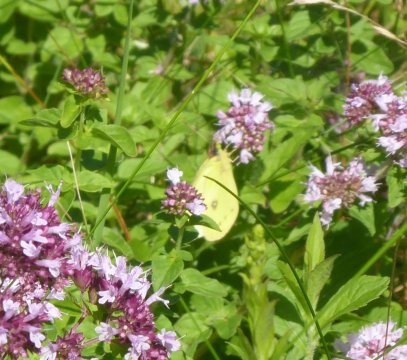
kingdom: Animalia
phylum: Arthropoda
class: Insecta
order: Lepidoptera
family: Pieridae
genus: Colias
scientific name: Colias philodice
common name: Clouded Sulphur
